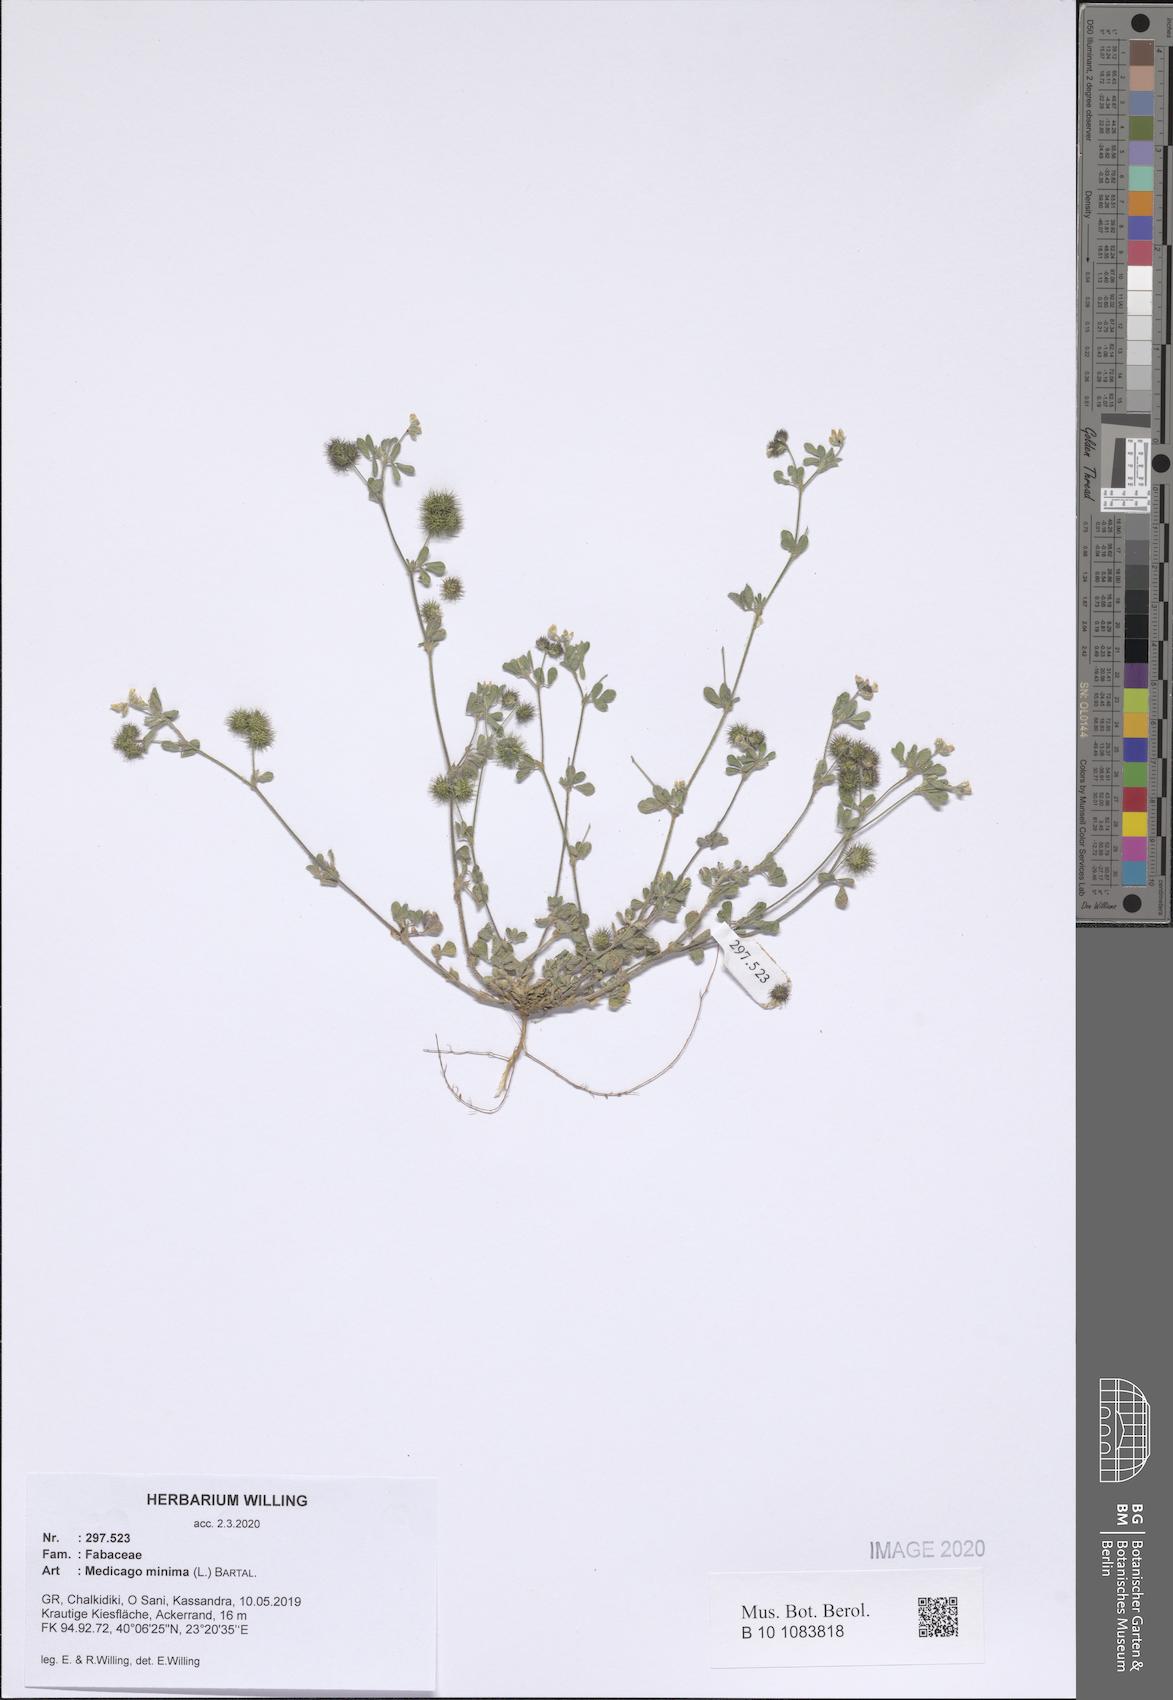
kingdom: Plantae
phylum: Tracheophyta
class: Magnoliopsida
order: Fabales
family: Fabaceae
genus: Medicago
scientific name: Medicago minima
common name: Little bur-clover
